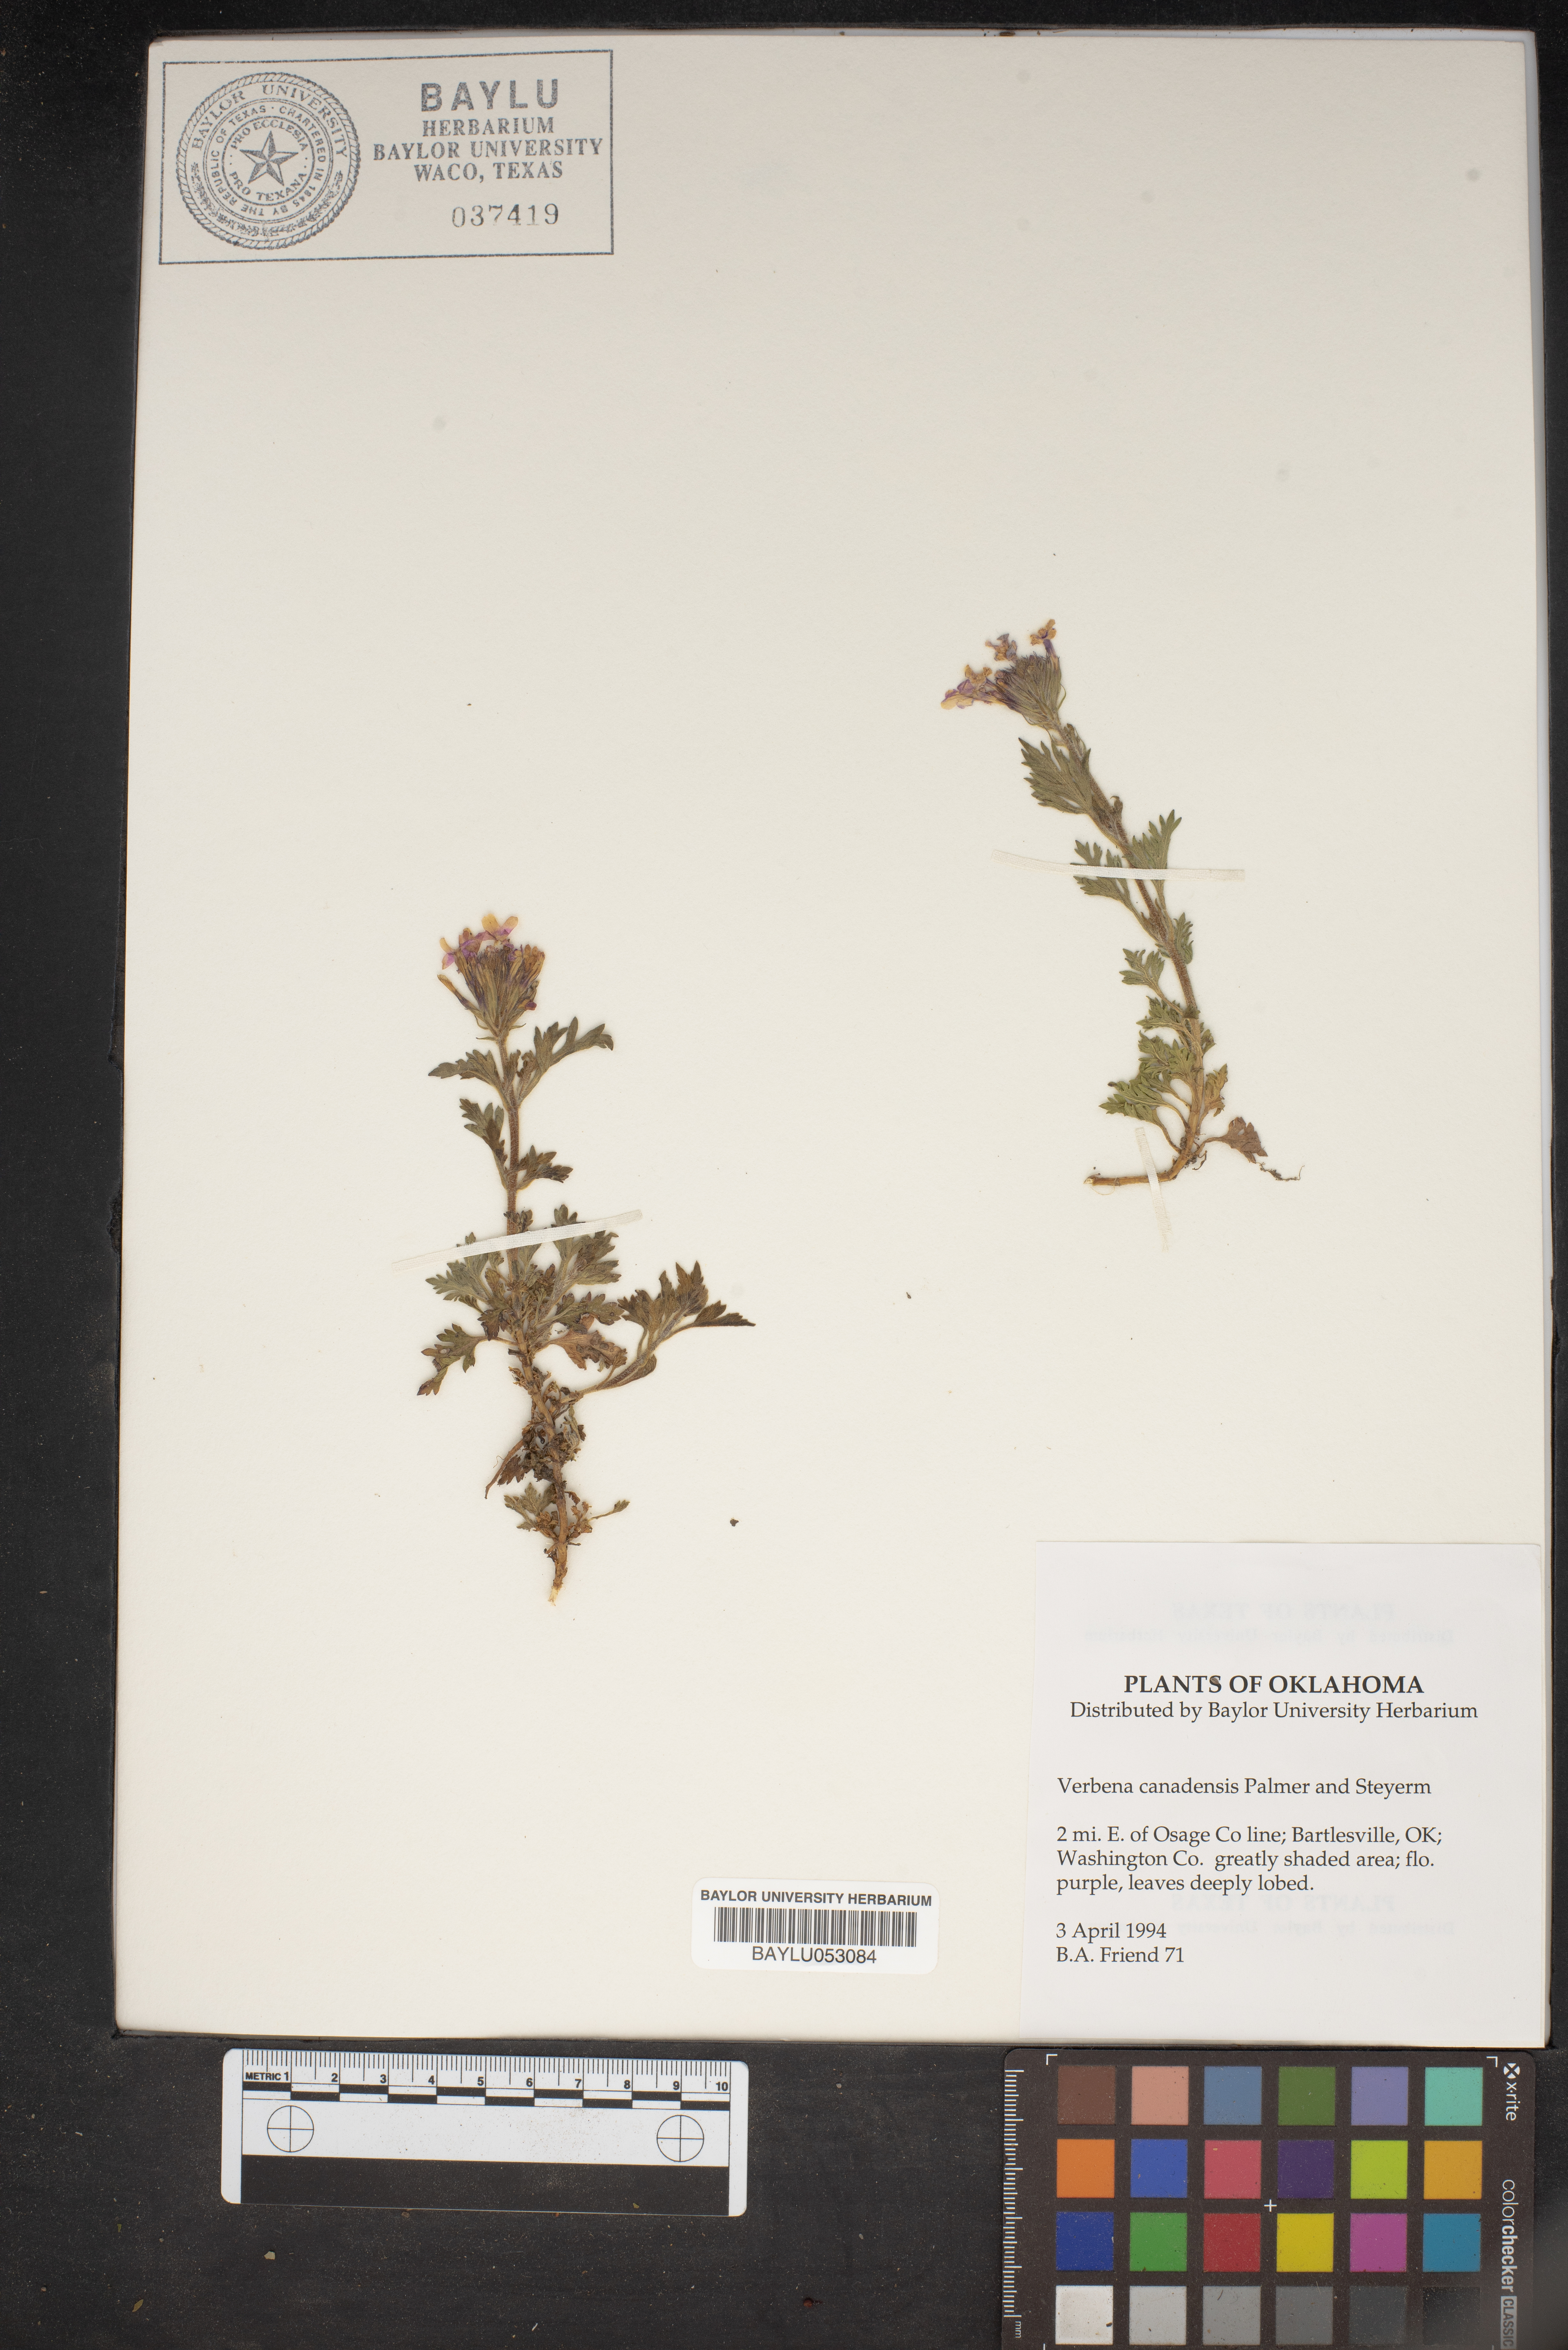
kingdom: Plantae
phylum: Tracheophyta
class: Magnoliopsida
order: Lamiales
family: Verbenaceae
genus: Verbena
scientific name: Verbena canadensis
